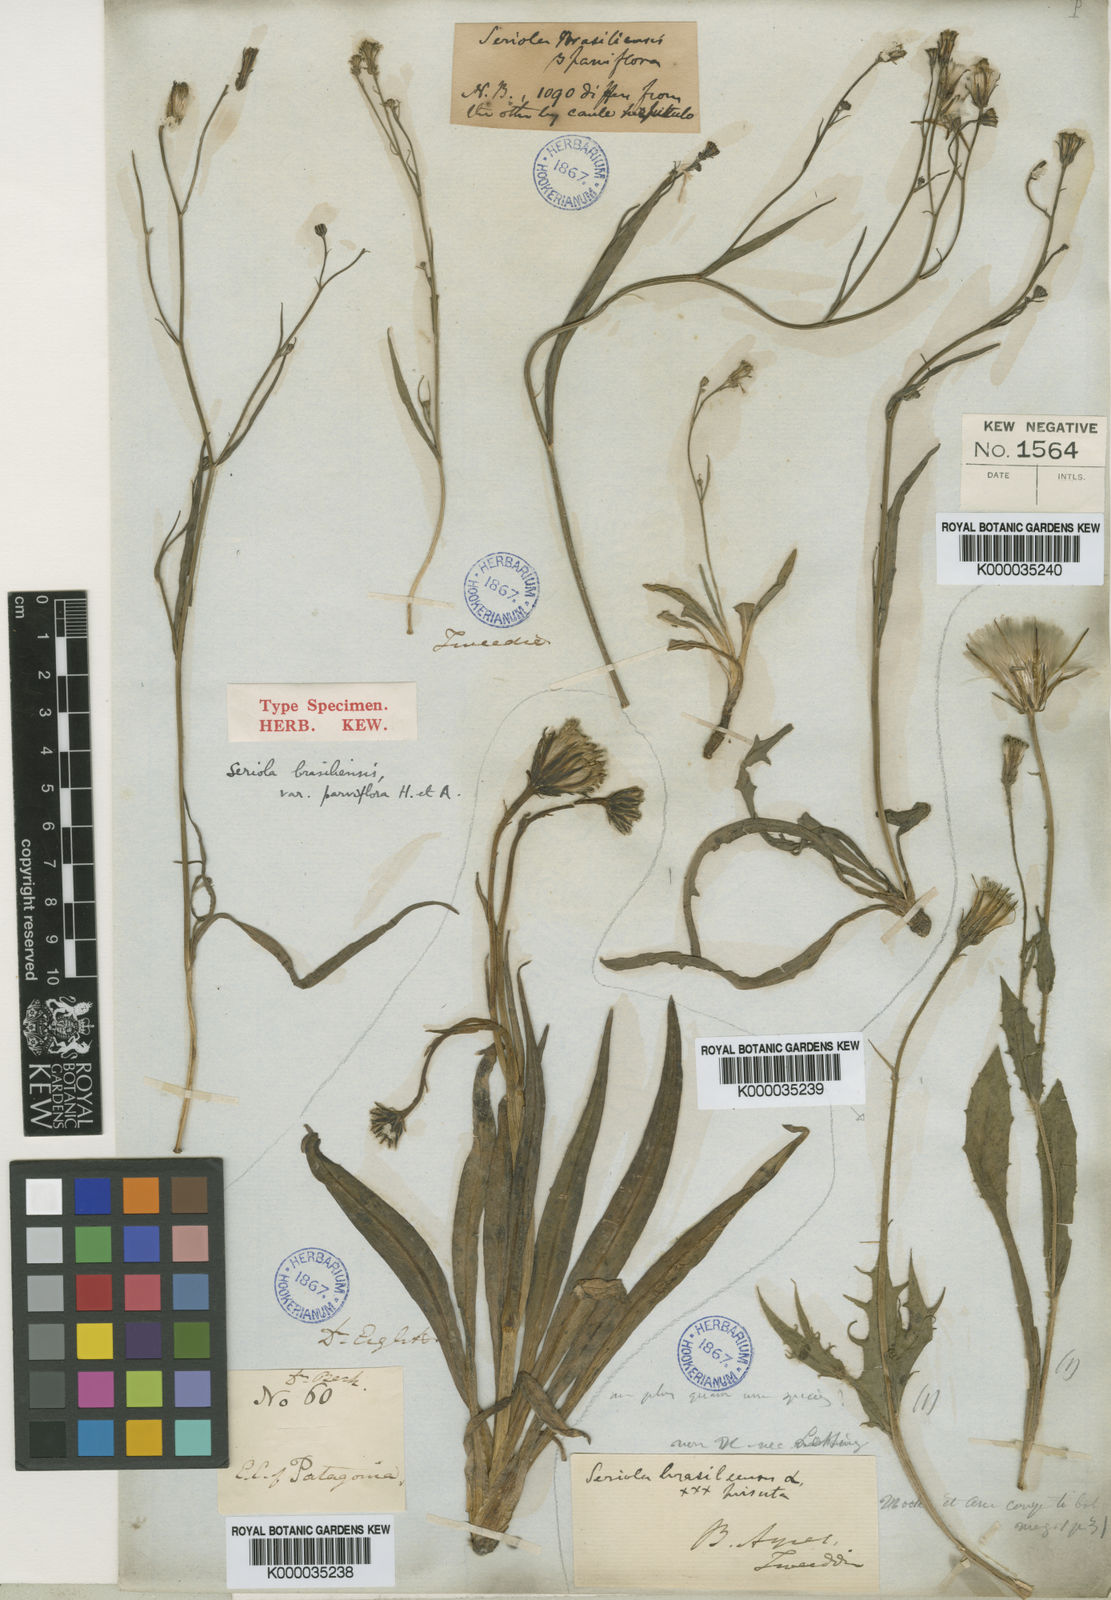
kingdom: Plantae
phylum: Tracheophyta
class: Magnoliopsida
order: Asterales
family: Asteraceae
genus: Hypochaeris
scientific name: Hypochaeris
